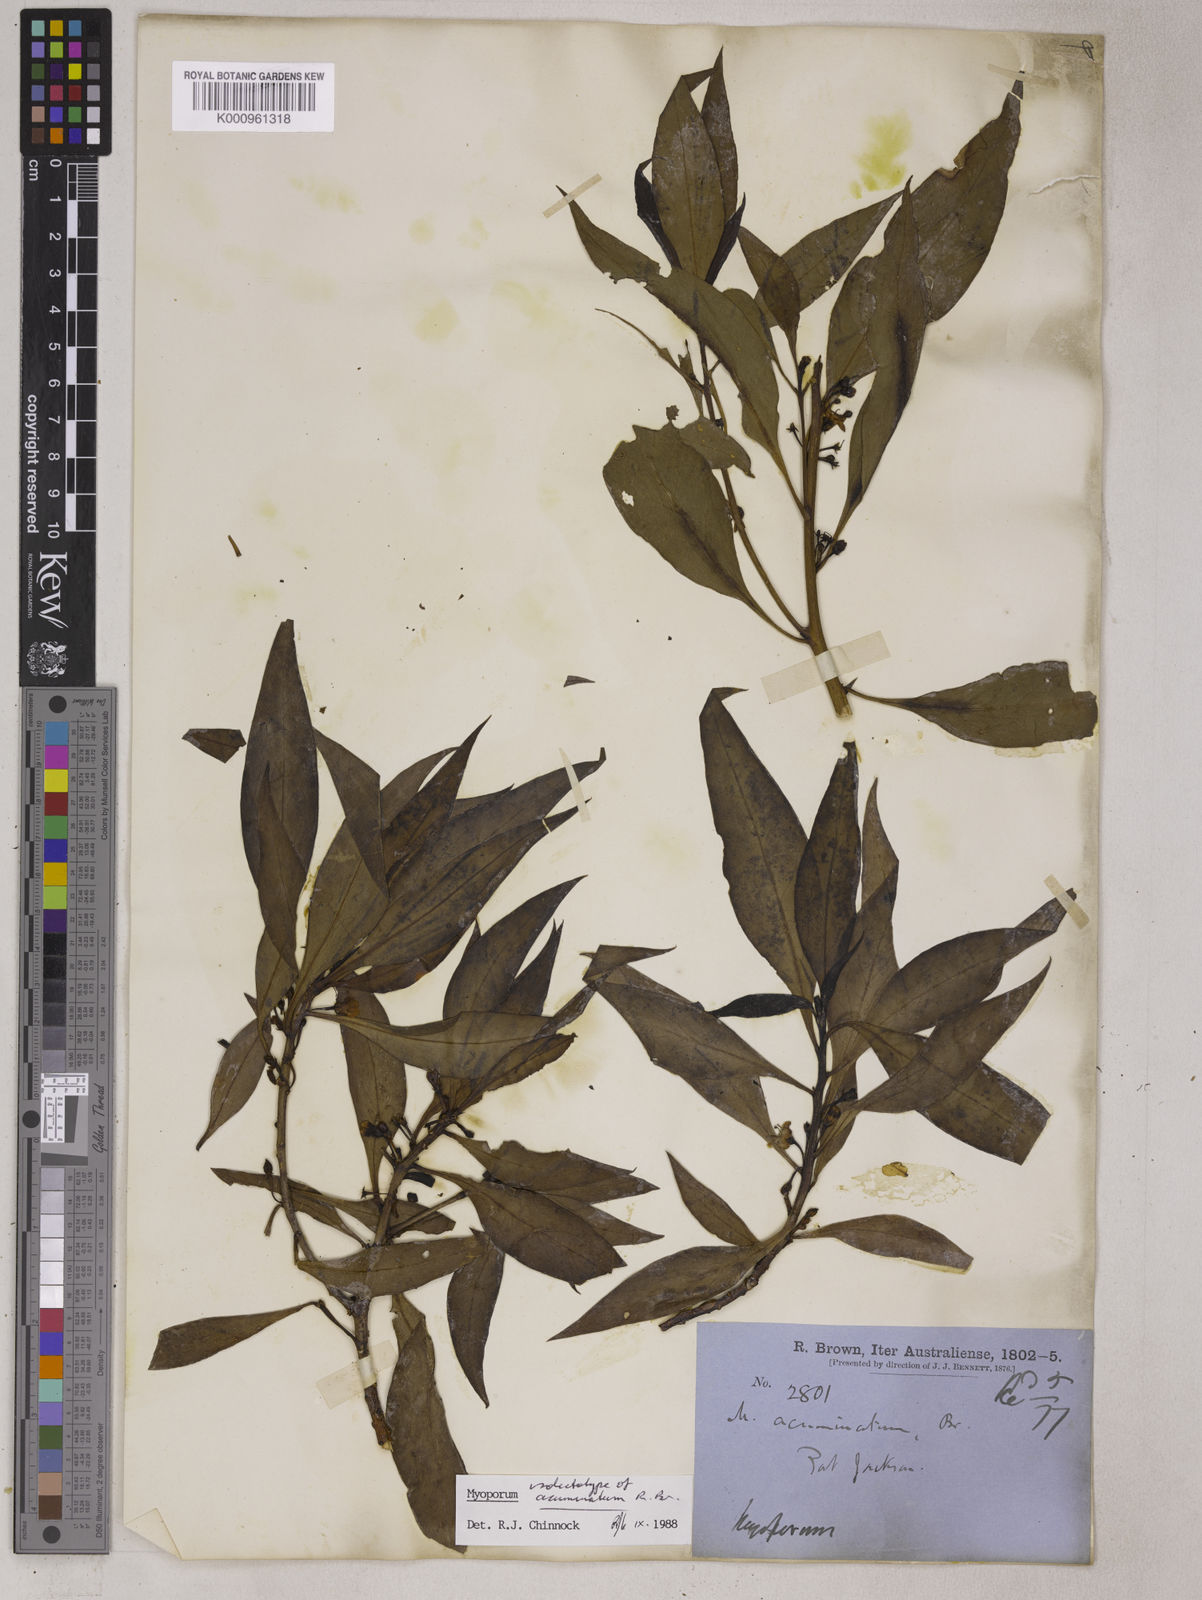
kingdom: Plantae
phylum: Tracheophyta
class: Magnoliopsida
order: Lamiales
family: Scrophulariaceae
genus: Myoporum
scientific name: Myoporum acuminatum
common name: Pointed boobialla
